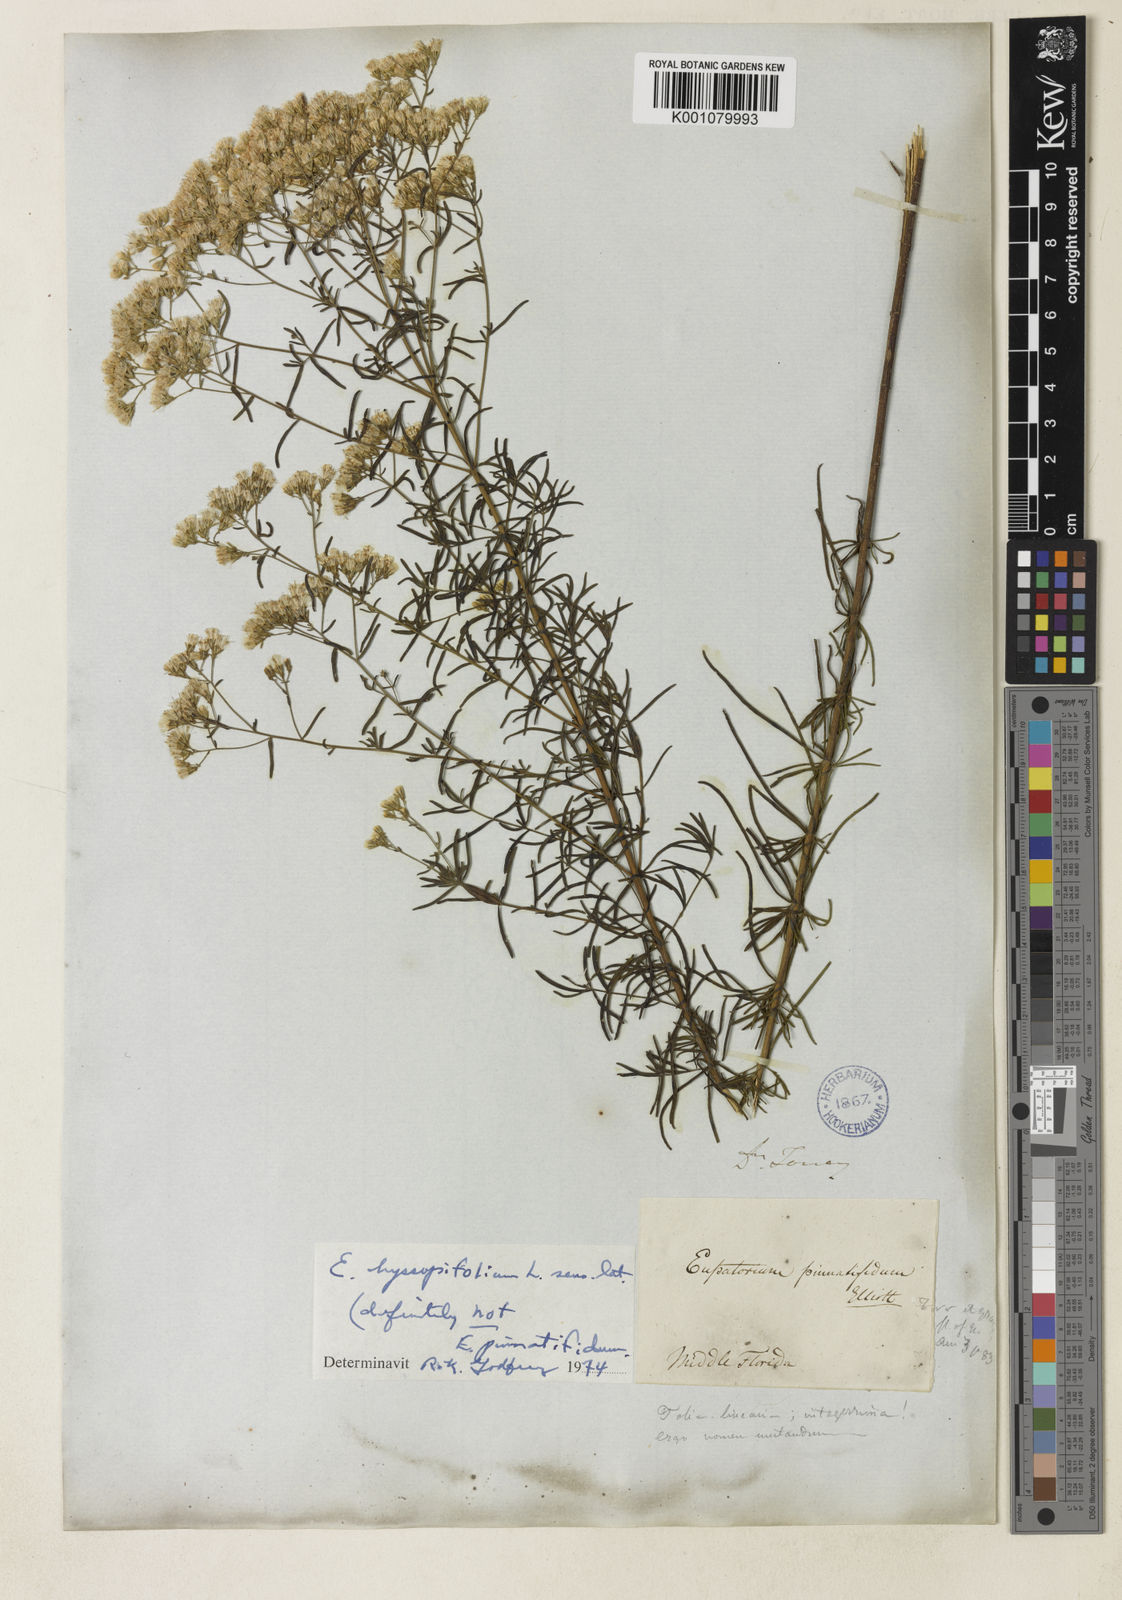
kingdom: Plantae
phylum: Tracheophyta
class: Magnoliopsida
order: Asterales
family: Asteraceae
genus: Eupatorium
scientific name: Eupatorium hyssopifolium
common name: Hyssop-leaf thoroughwort
